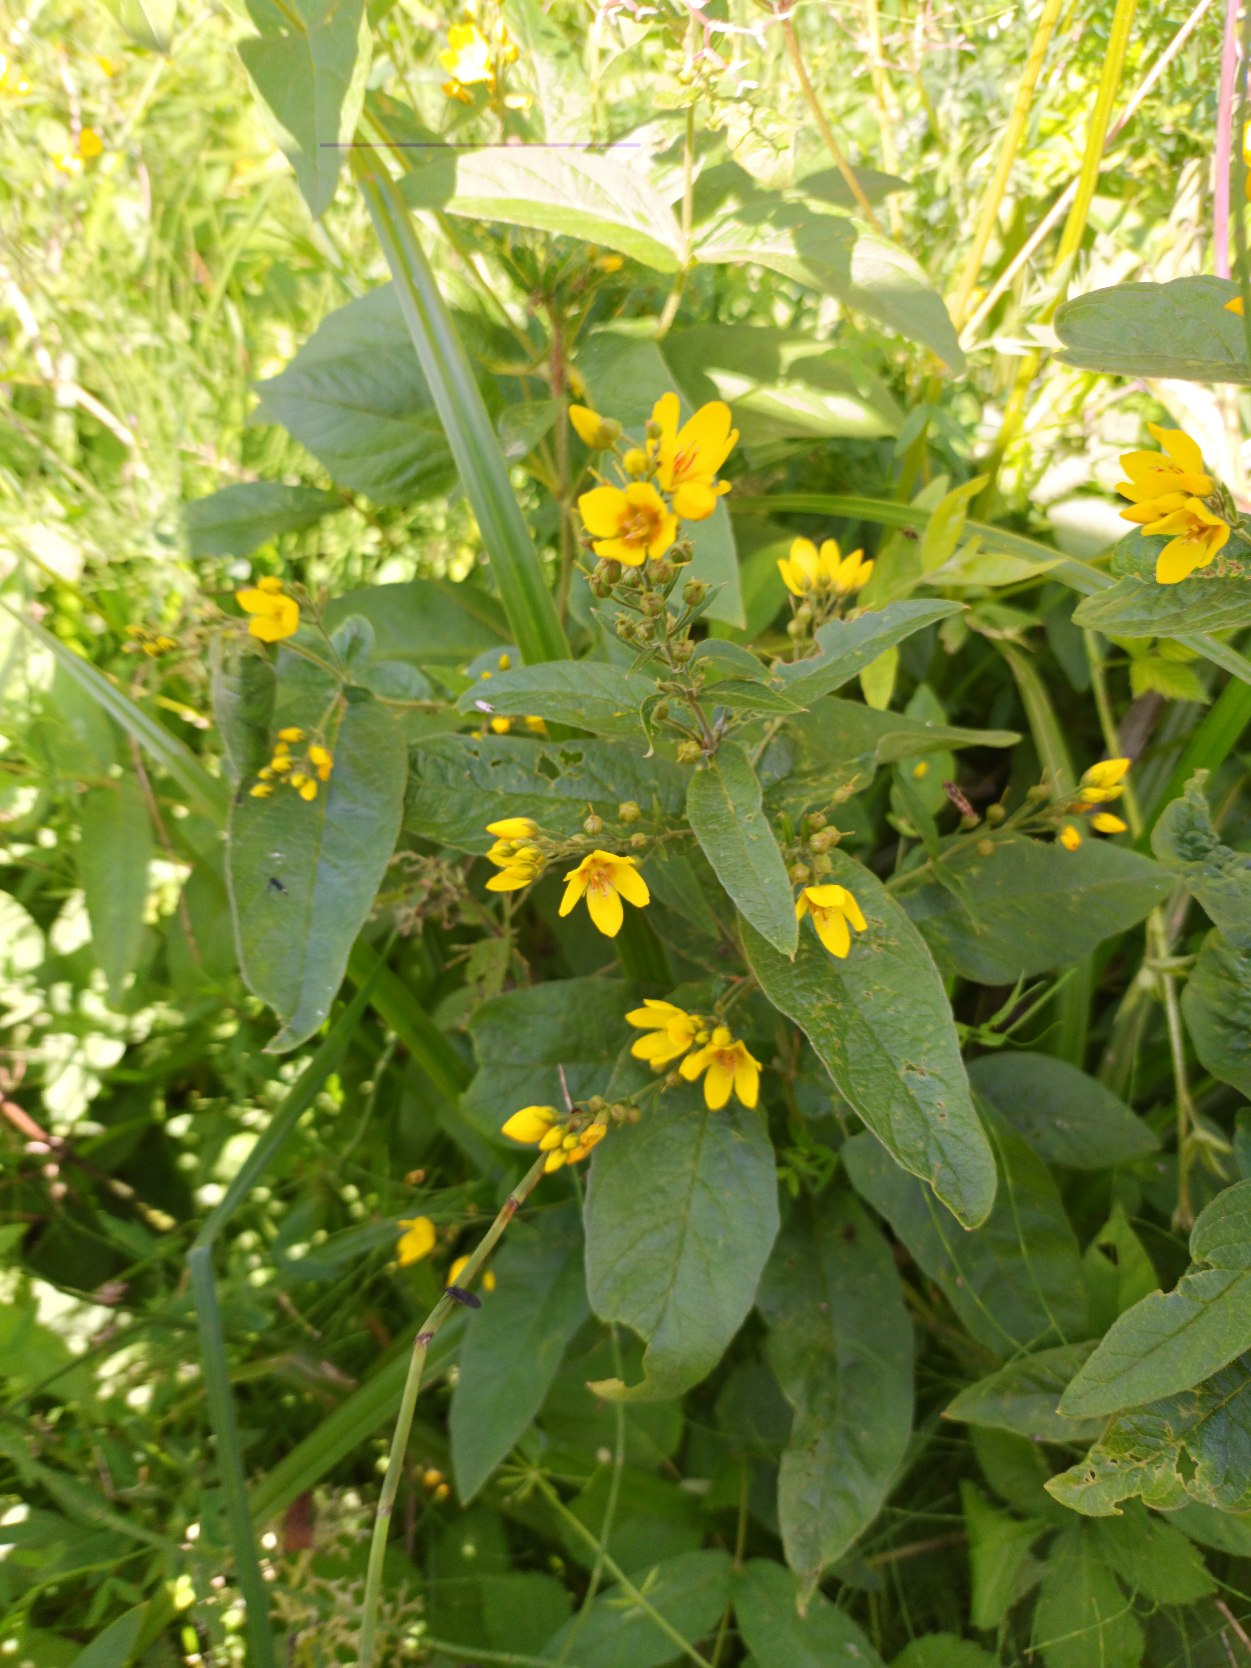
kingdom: Plantae
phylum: Tracheophyta
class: Magnoliopsida
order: Ericales
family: Primulaceae
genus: Lysimachia
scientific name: Lysimachia vulgaris
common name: Almindelig fredløs
